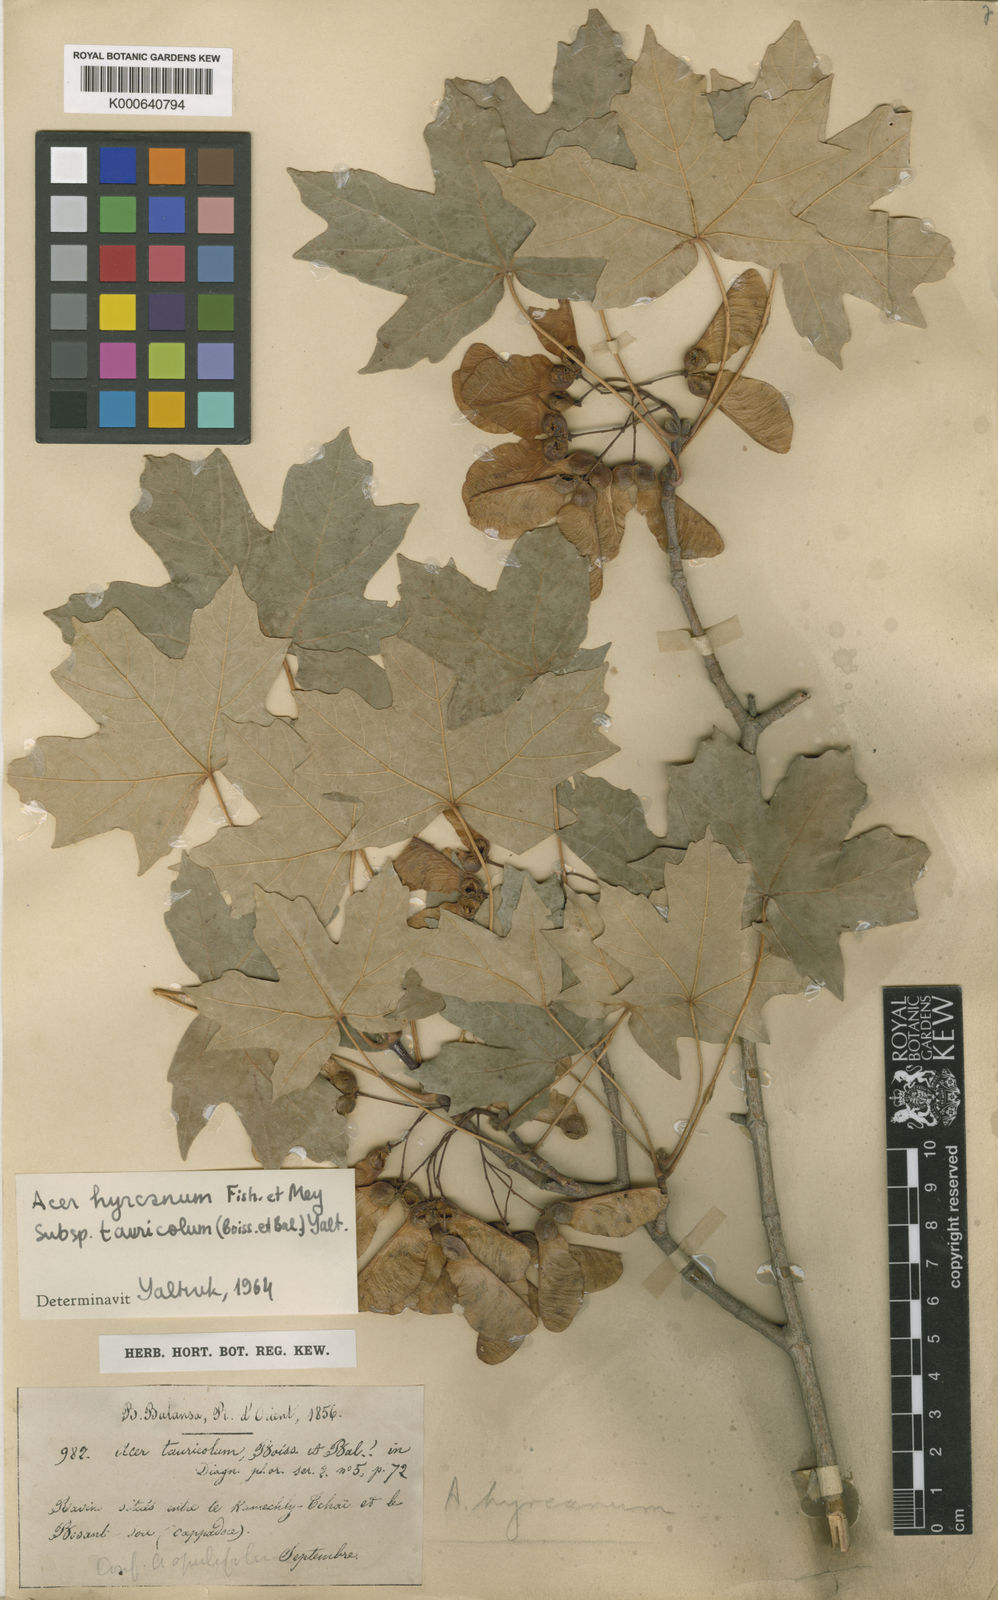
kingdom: Plantae
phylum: Tracheophyta
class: Magnoliopsida
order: Sapindales
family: Sapindaceae
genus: Acer
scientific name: Acer hyrcanum
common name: Balkan maple
